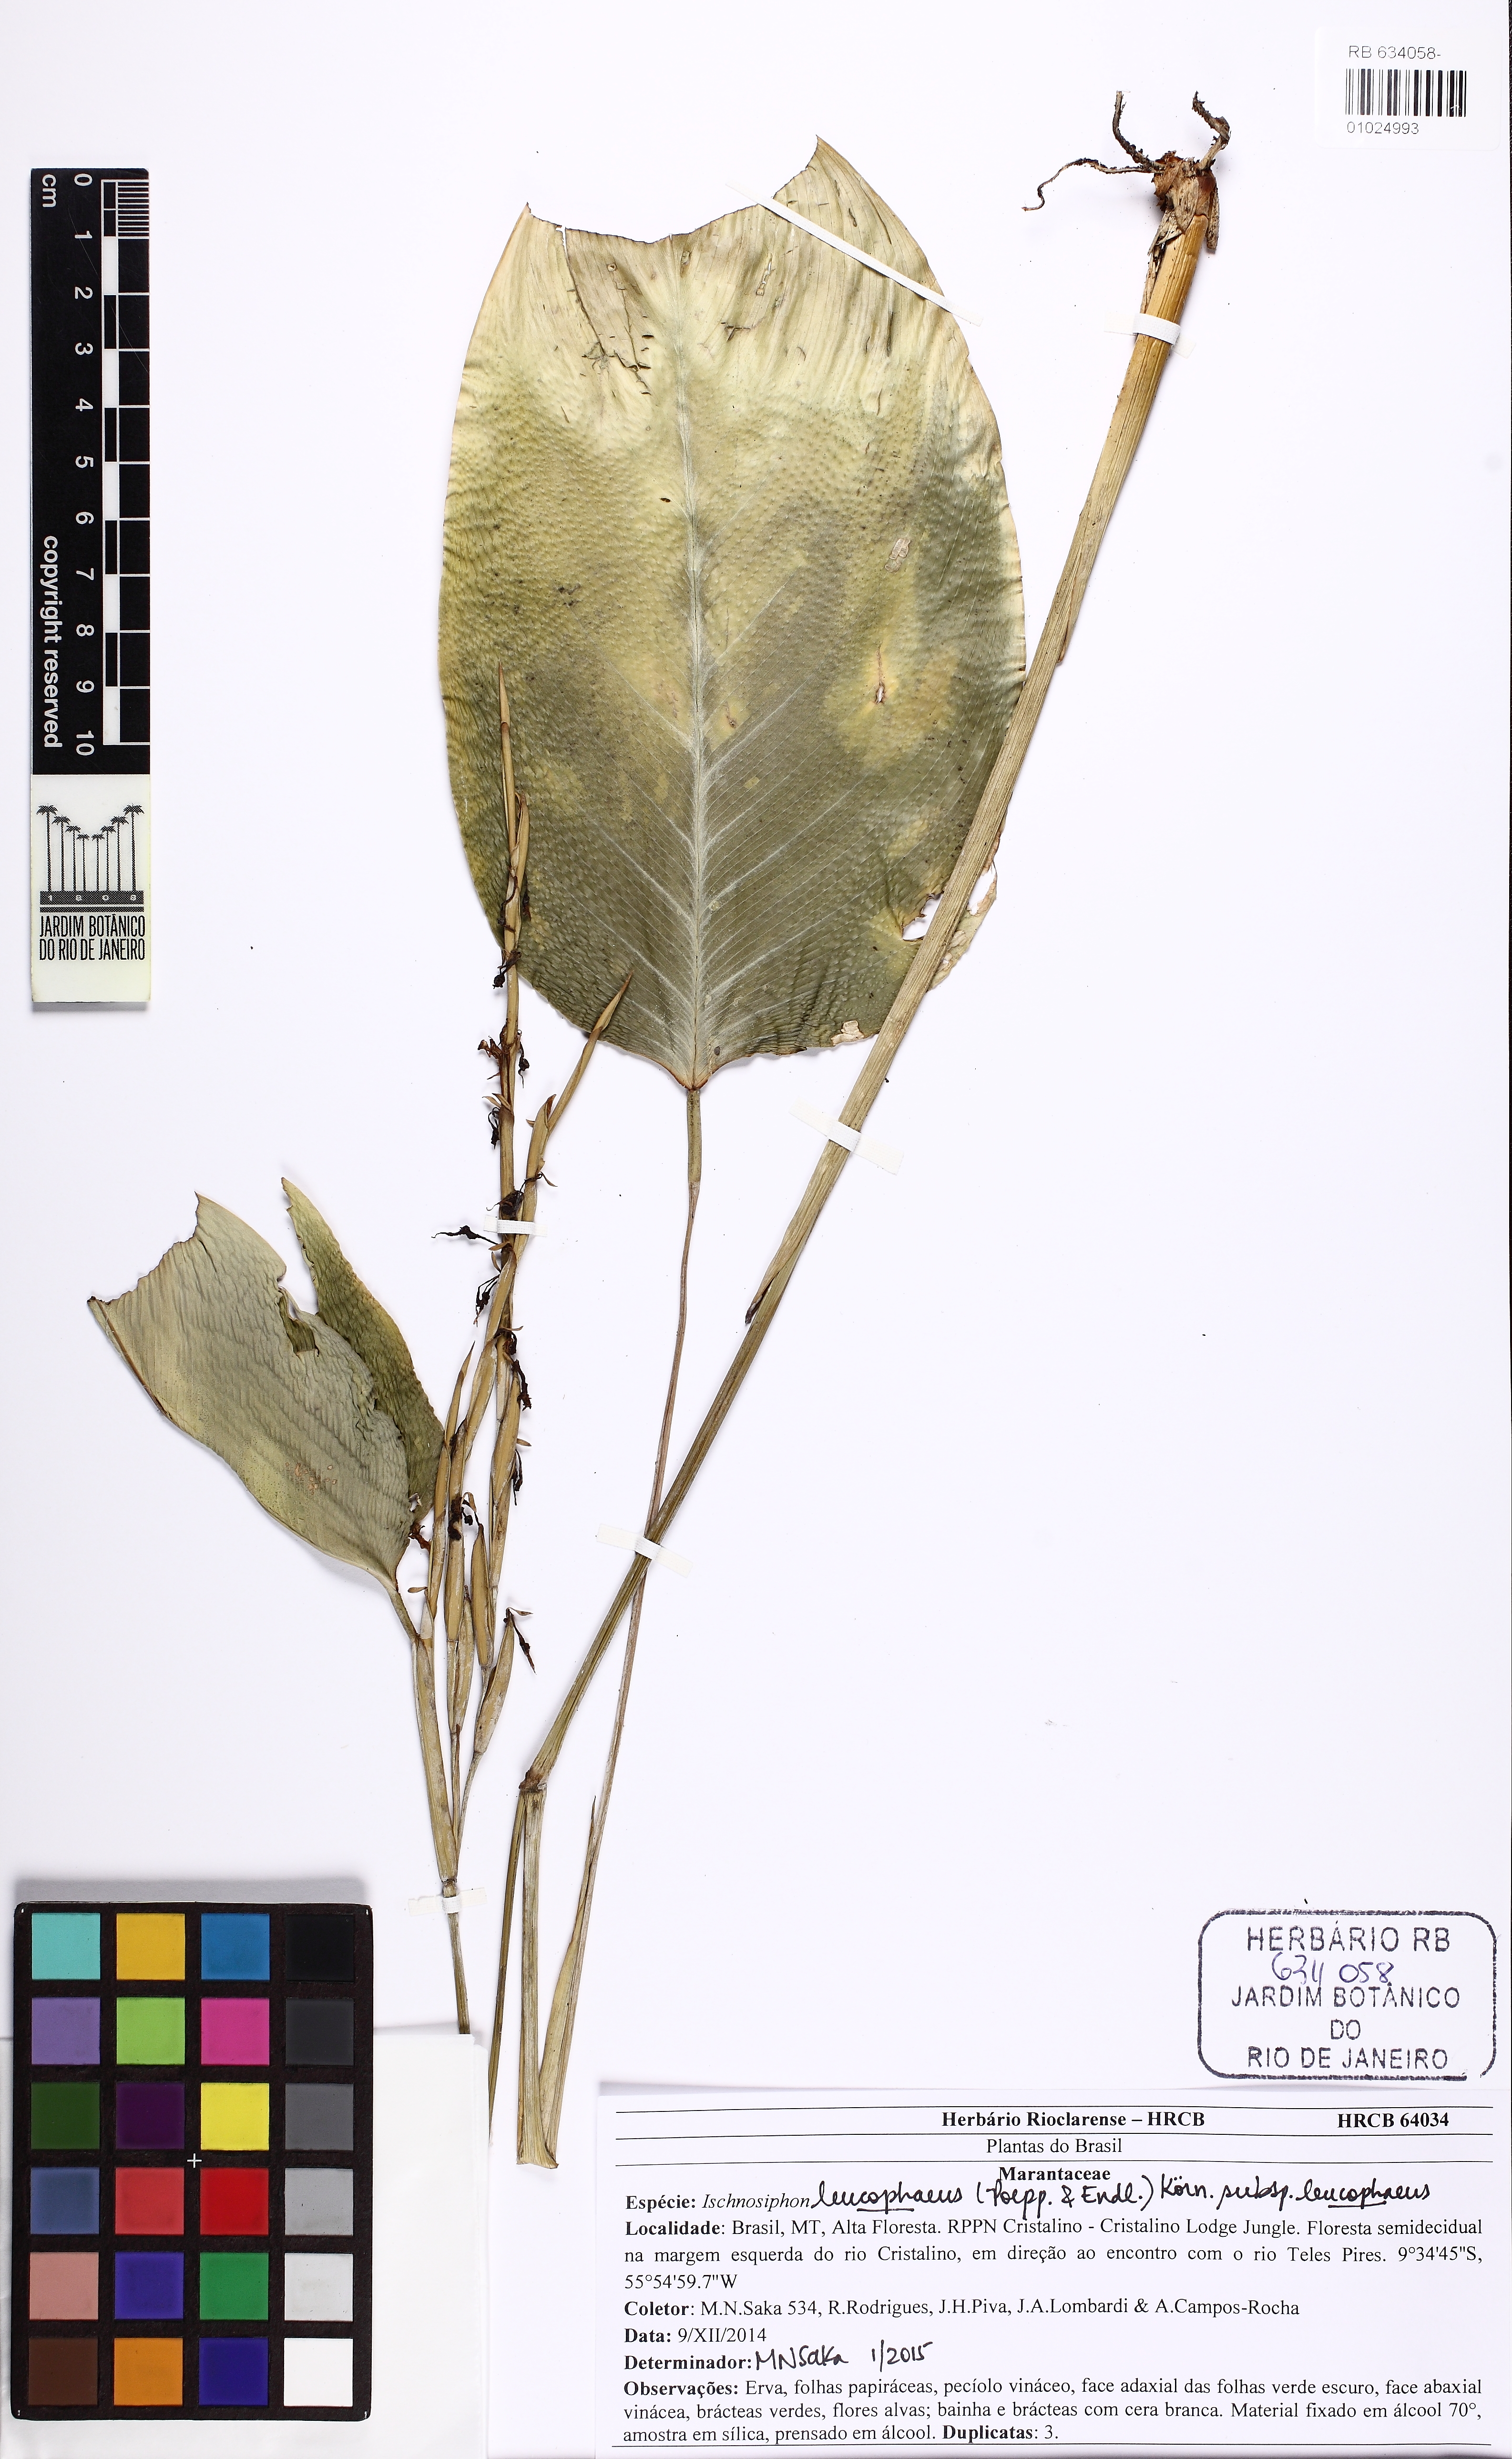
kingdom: Plantae
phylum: Tracheophyta
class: Liliopsida
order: Zingiberales
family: Marantaceae
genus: Ischnosiphon
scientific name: Ischnosiphon leucophaeus
